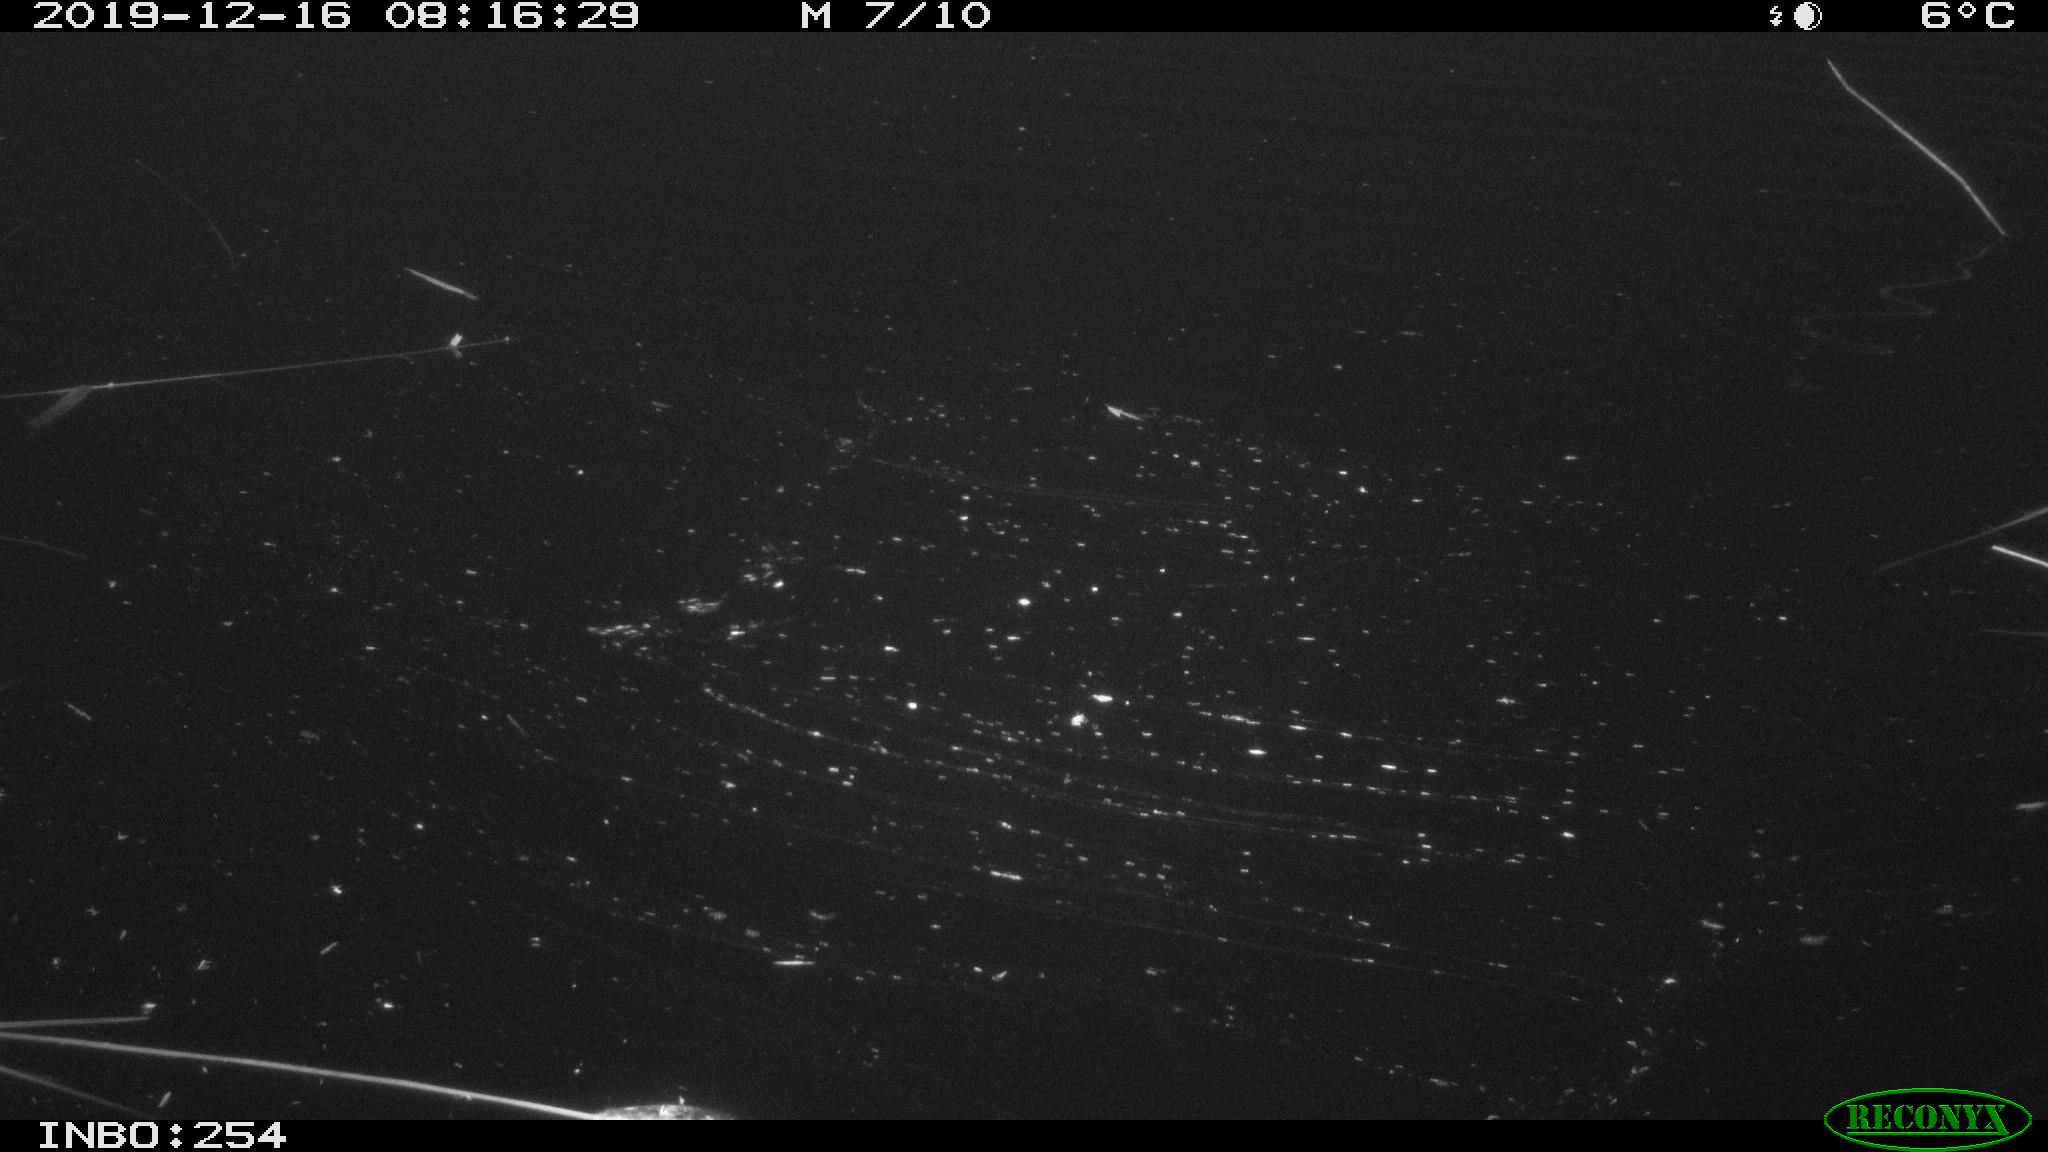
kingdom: Animalia
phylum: Chordata
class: Aves
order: Gruiformes
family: Rallidae
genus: Fulica
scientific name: Fulica atra
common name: Eurasian coot
